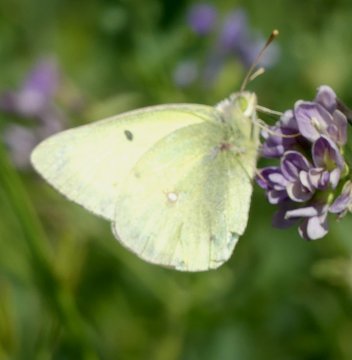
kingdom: Animalia
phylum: Arthropoda
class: Insecta
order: Lepidoptera
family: Pieridae
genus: Colias
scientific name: Colias philodice
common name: Clouded Sulphur
